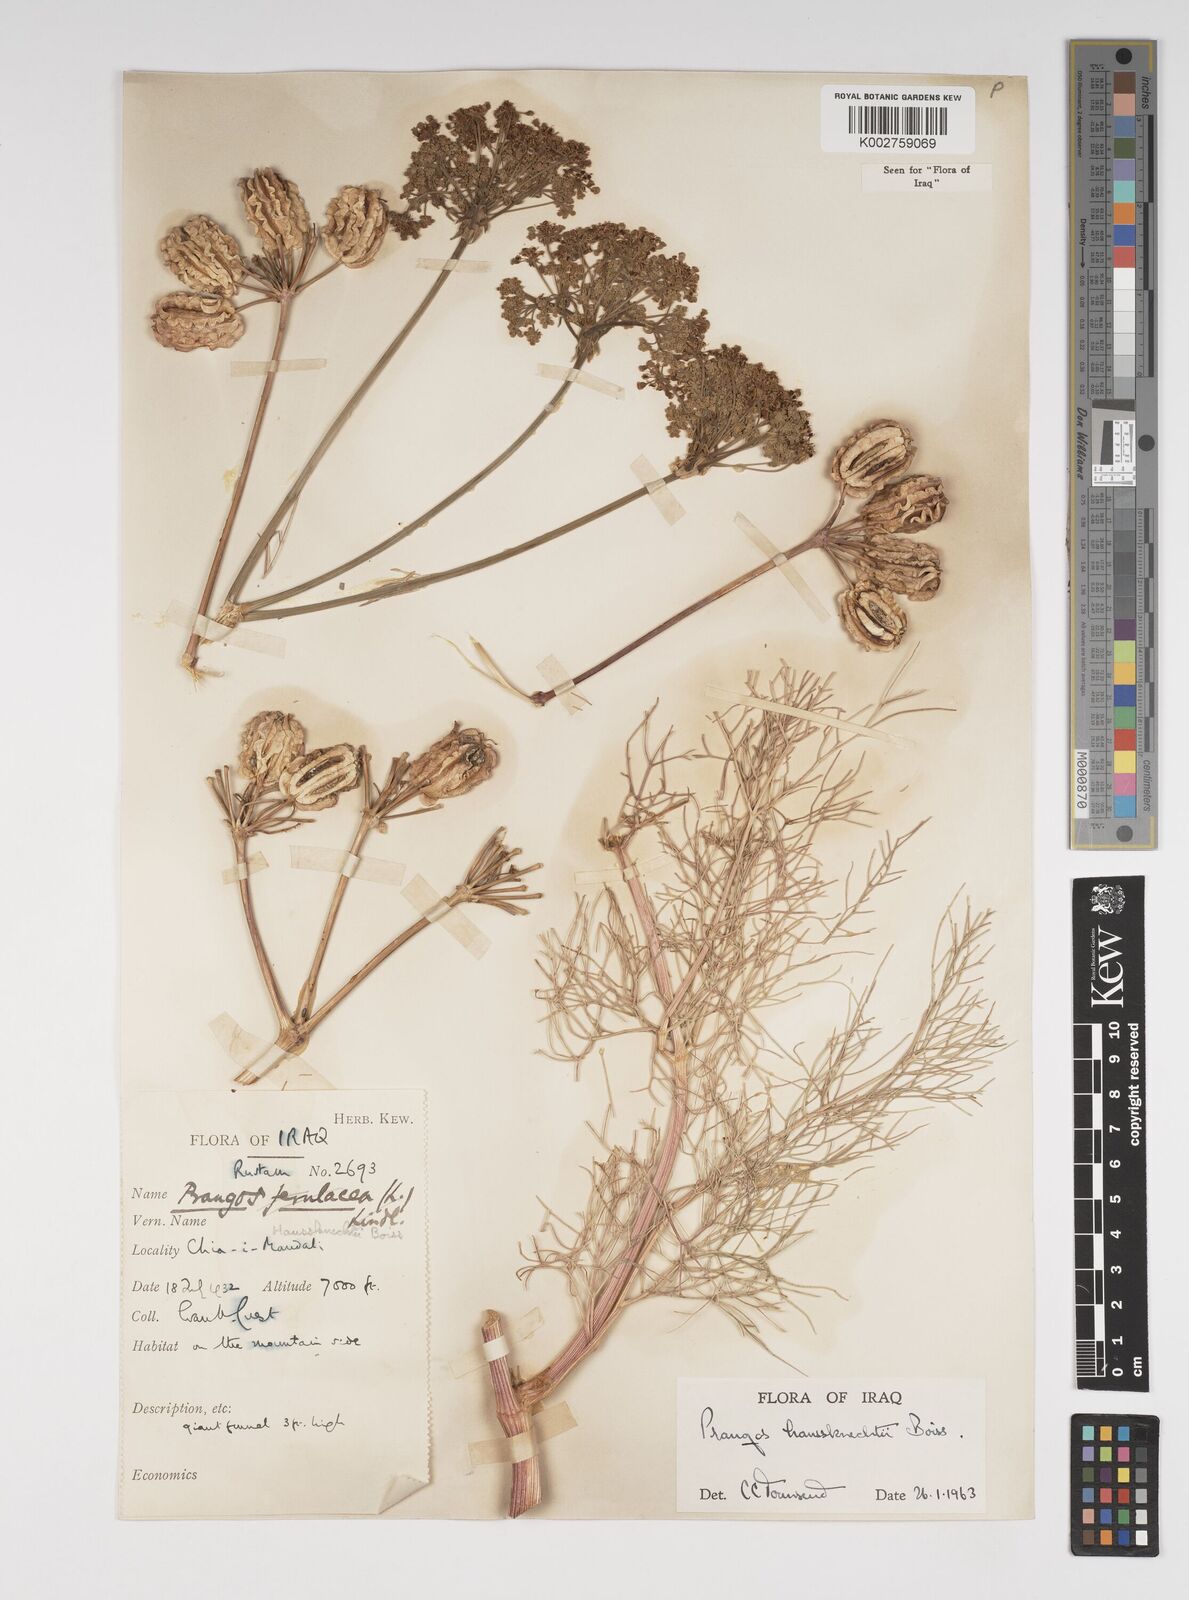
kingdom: Plantae
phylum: Tracheophyta
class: Magnoliopsida
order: Apiales
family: Apiaceae
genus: Prangos
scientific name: Prangos asperula
